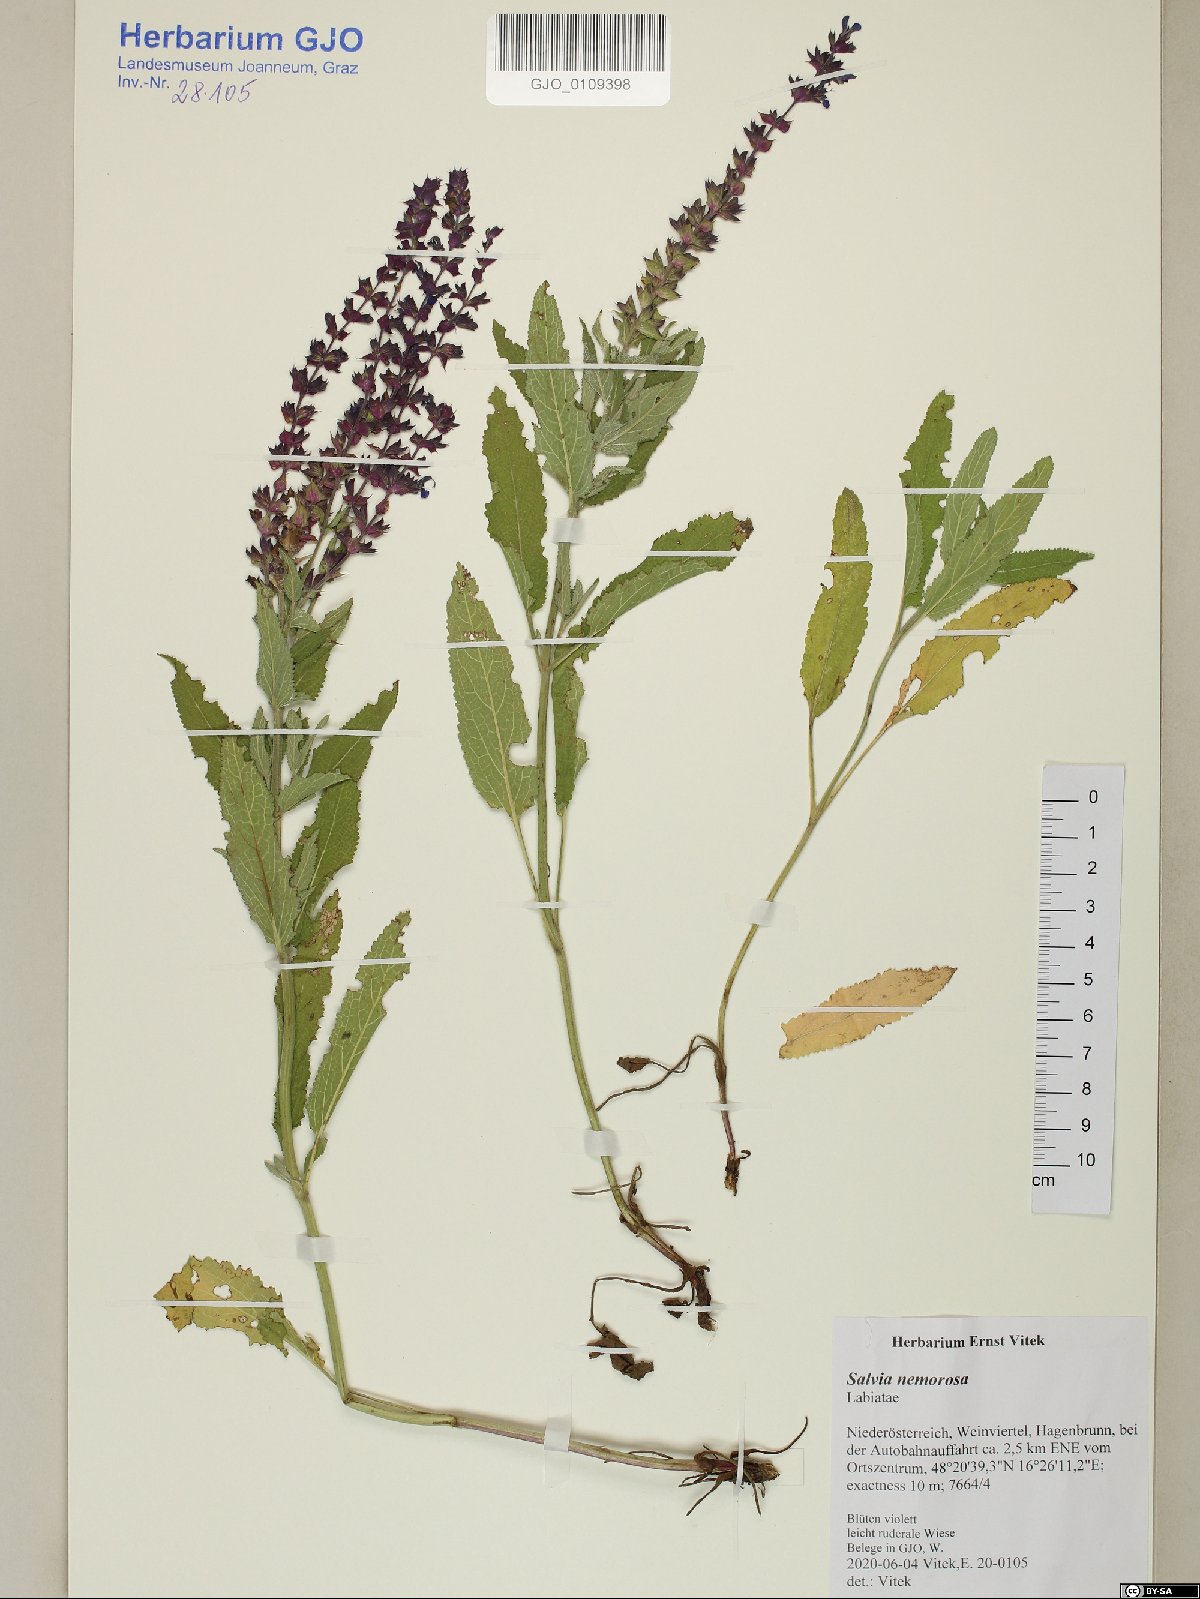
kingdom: Plantae
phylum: Tracheophyta
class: Magnoliopsida
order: Lamiales
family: Lamiaceae
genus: Salvia
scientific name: Salvia nemorosa
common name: Balkan clary
